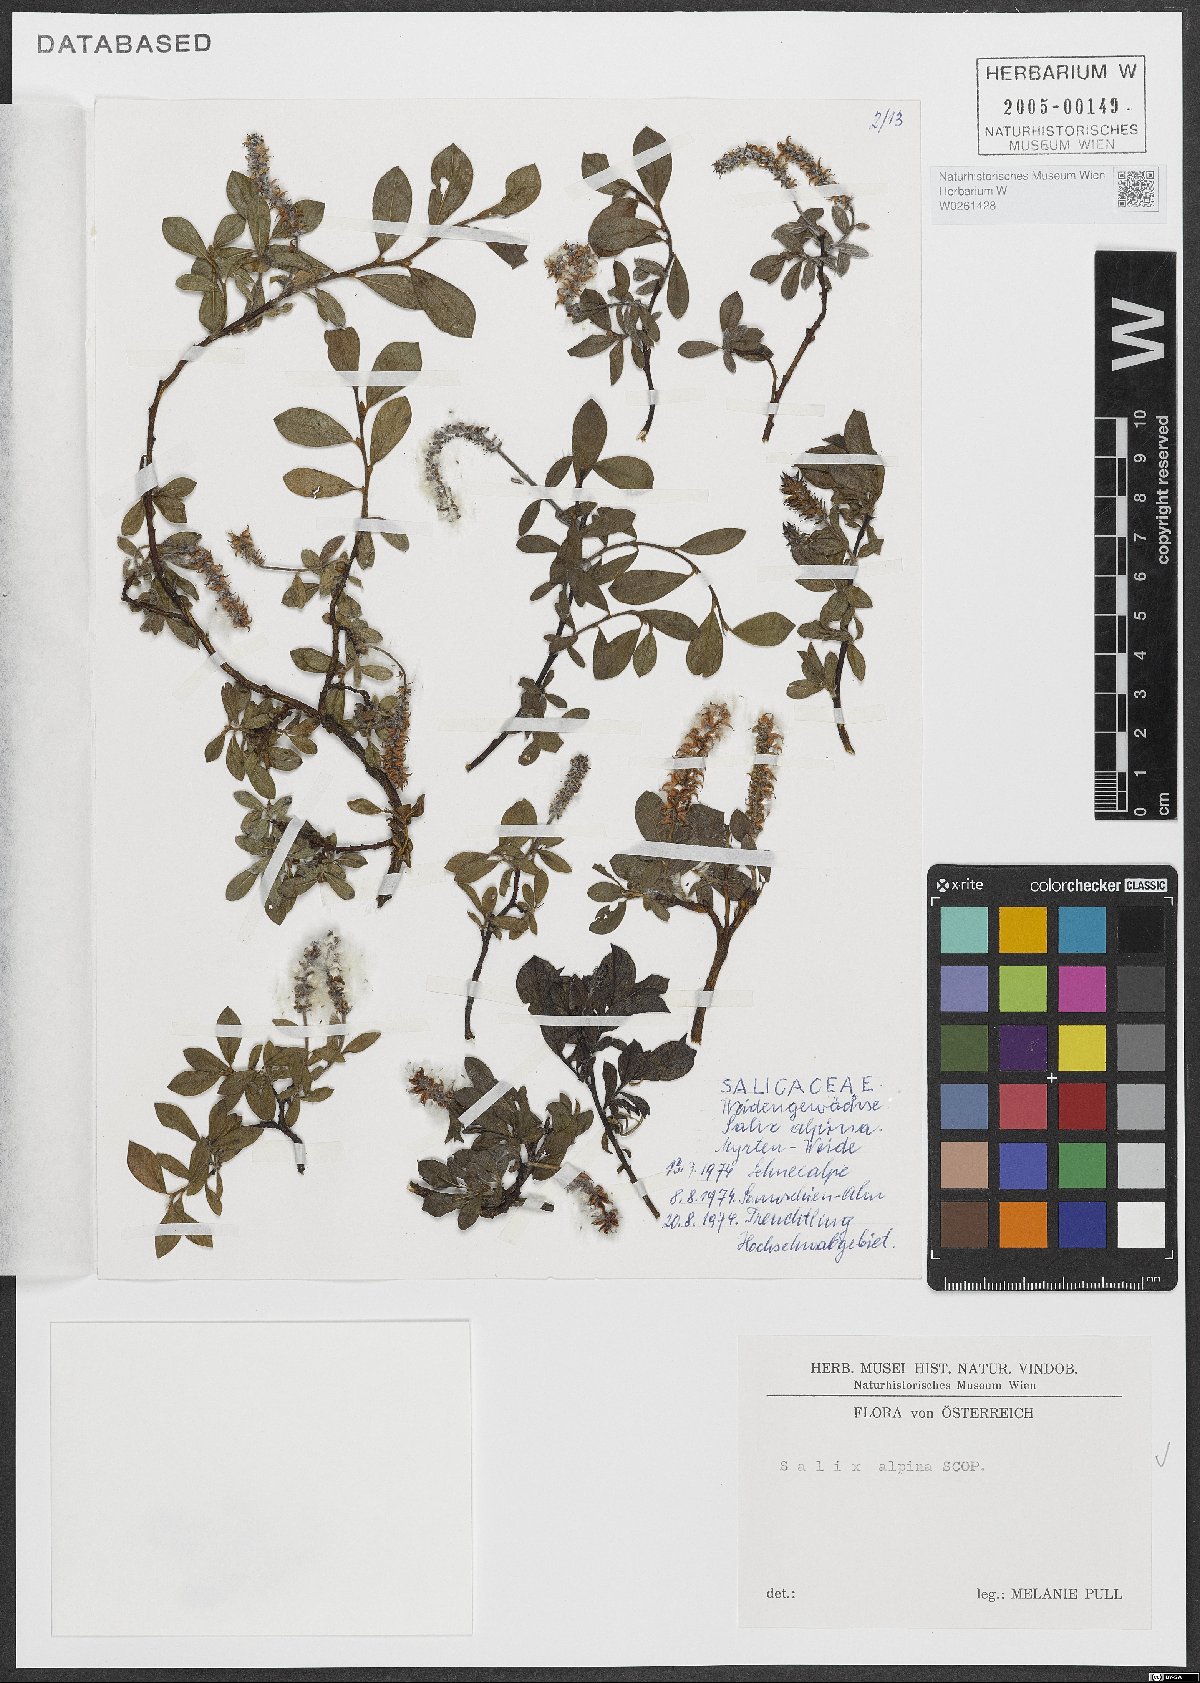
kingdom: Plantae
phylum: Tracheophyta
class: Magnoliopsida
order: Malpighiales
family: Salicaceae
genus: Salix
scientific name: Salix alpina
